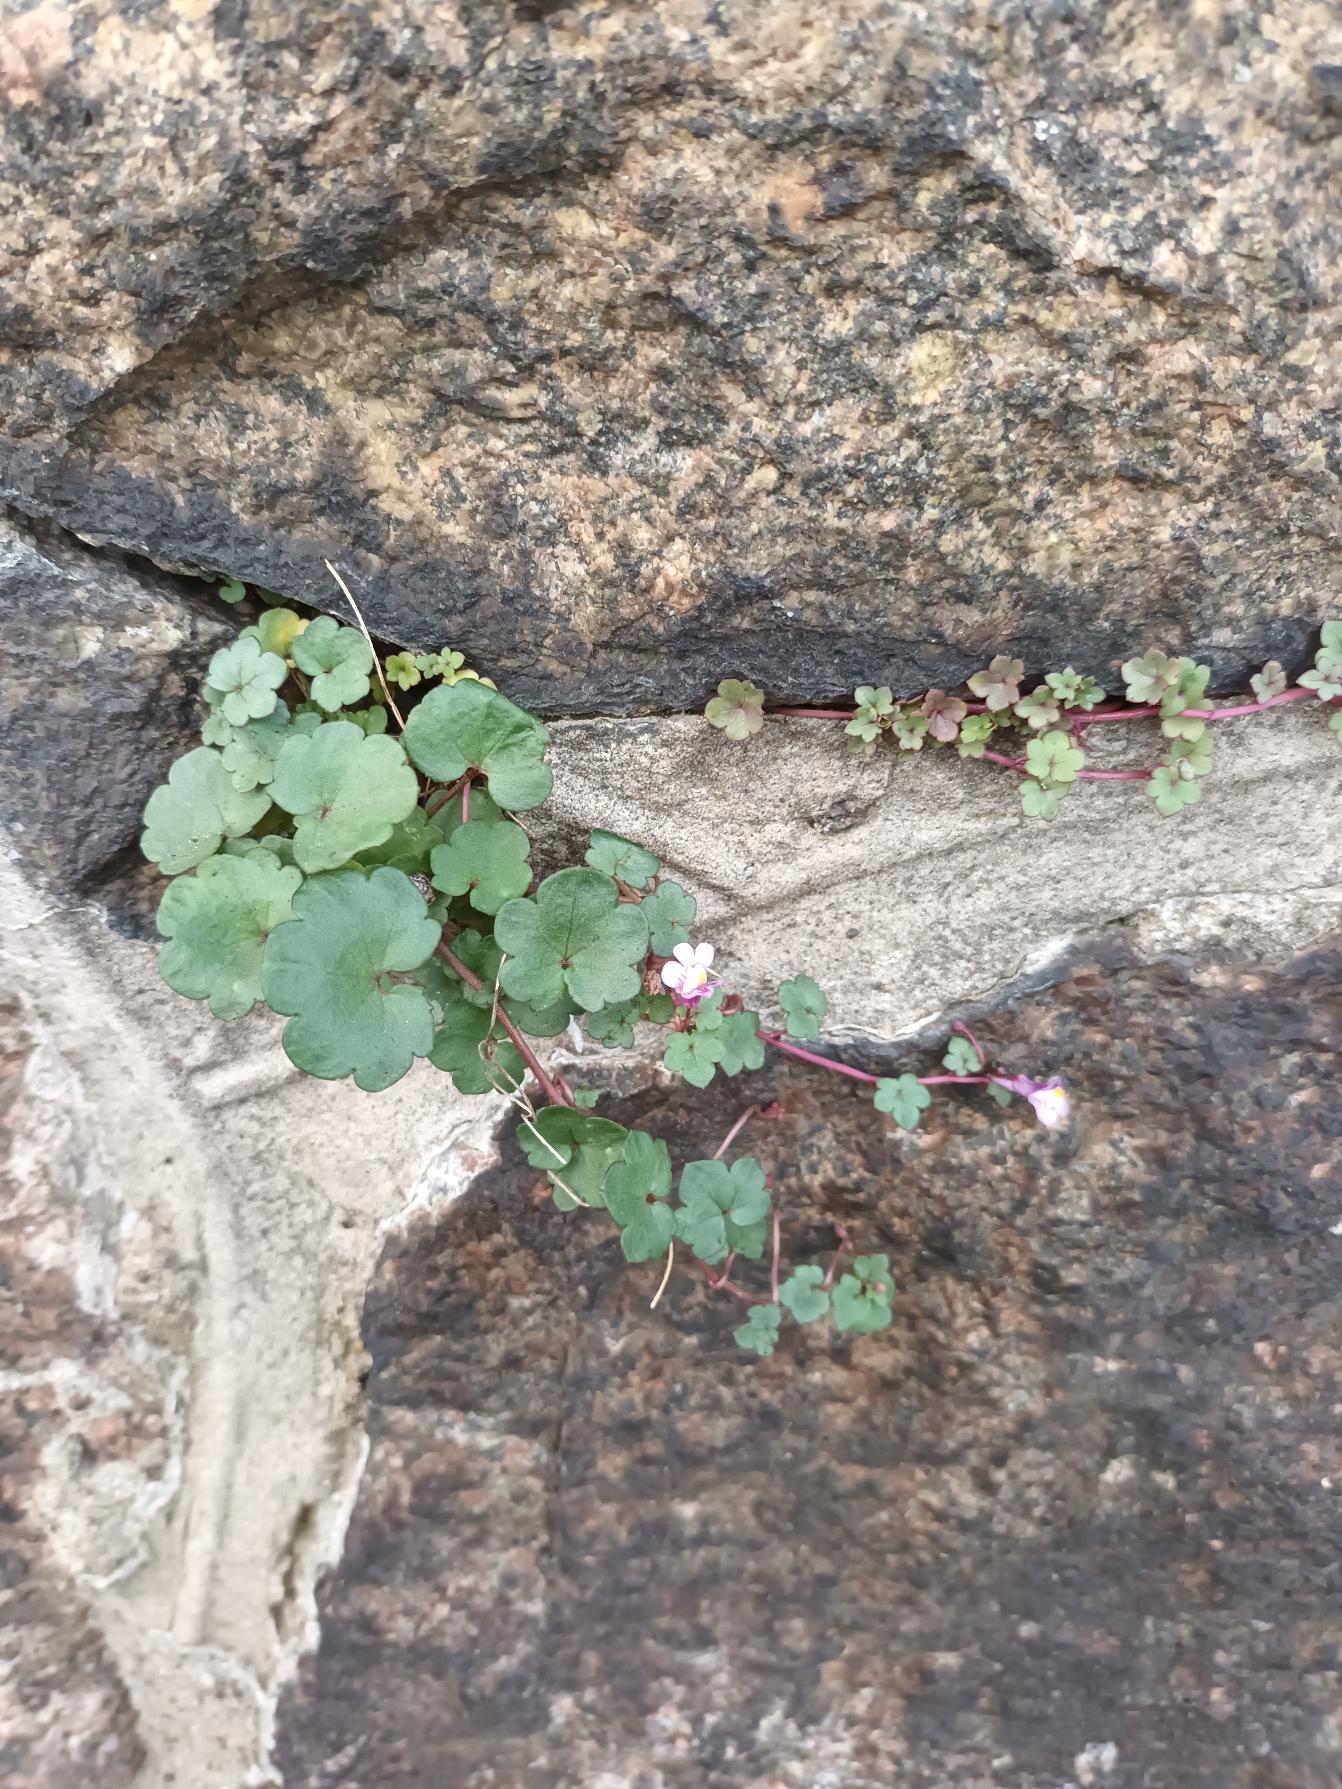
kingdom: Plantae
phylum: Tracheophyta
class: Magnoliopsida
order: Lamiales
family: Plantaginaceae
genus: Cymbalaria
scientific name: Cymbalaria muralis
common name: Vedbend-torskemund
